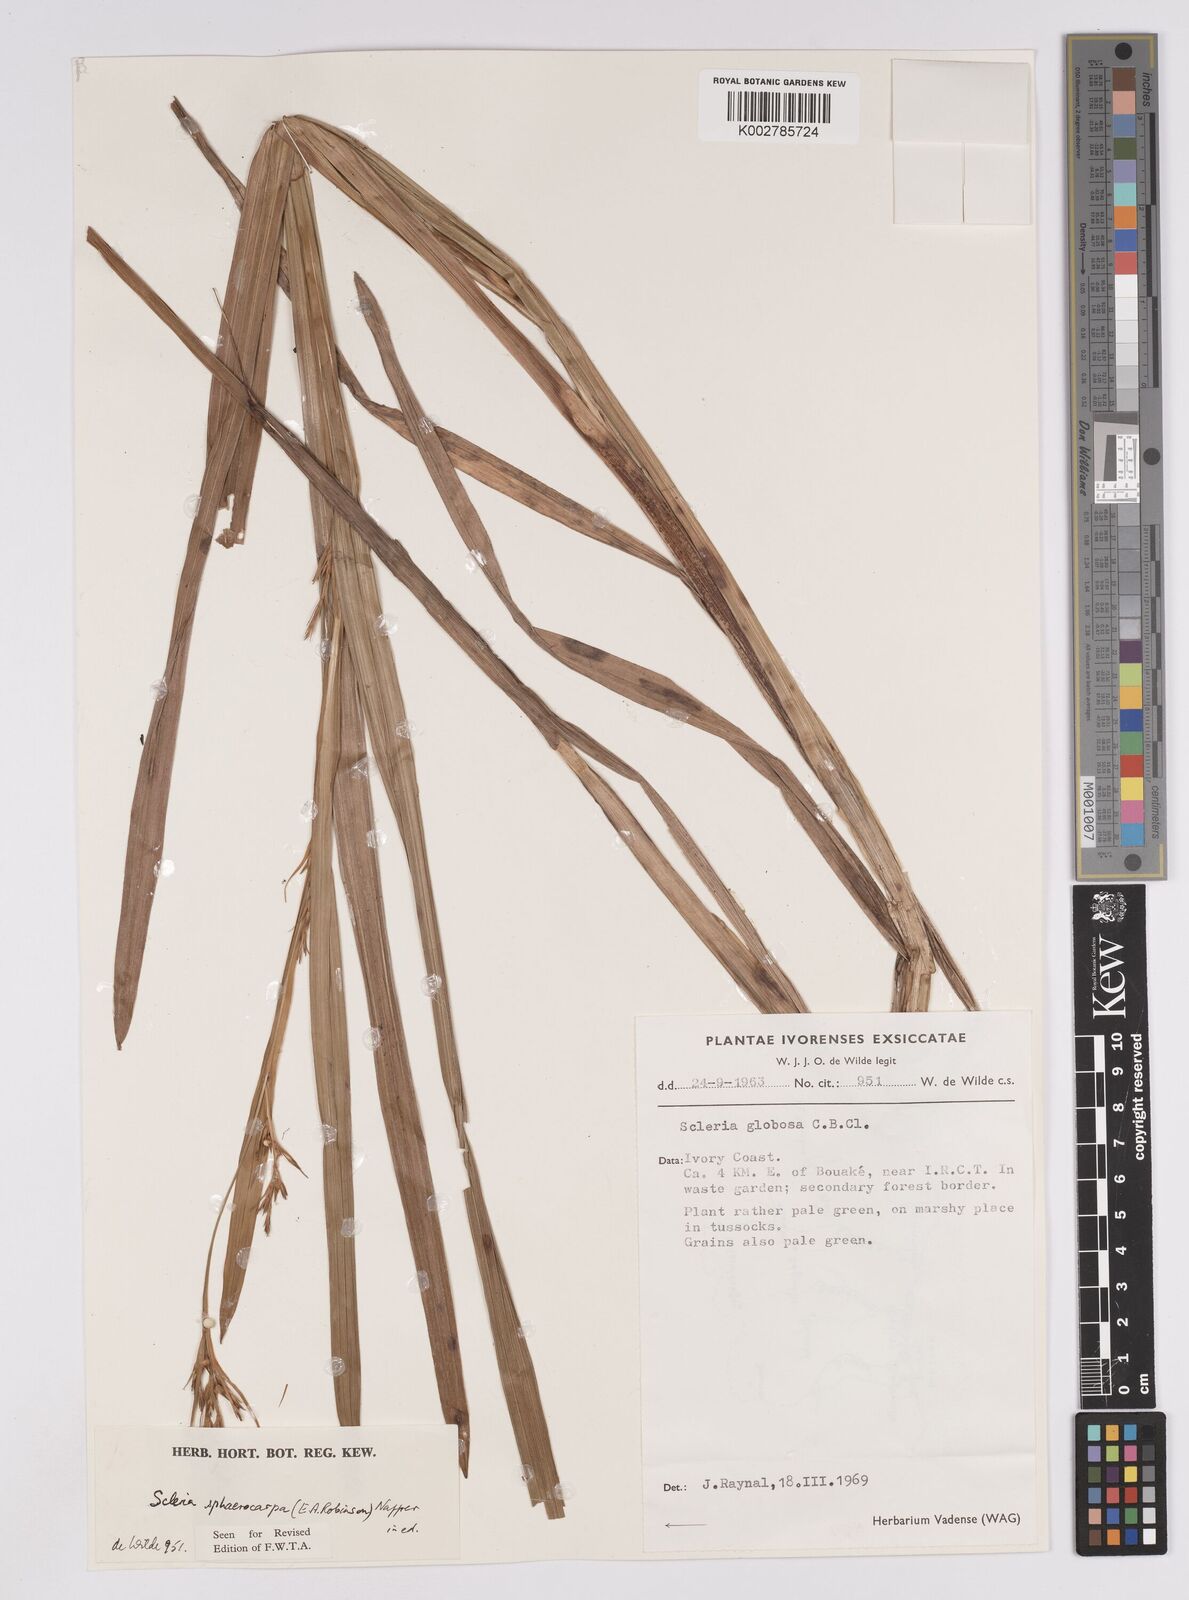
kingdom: Plantae
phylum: Tracheophyta
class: Liliopsida
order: Poales
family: Cyperaceae
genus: Scleria
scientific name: Scleria tessellata
